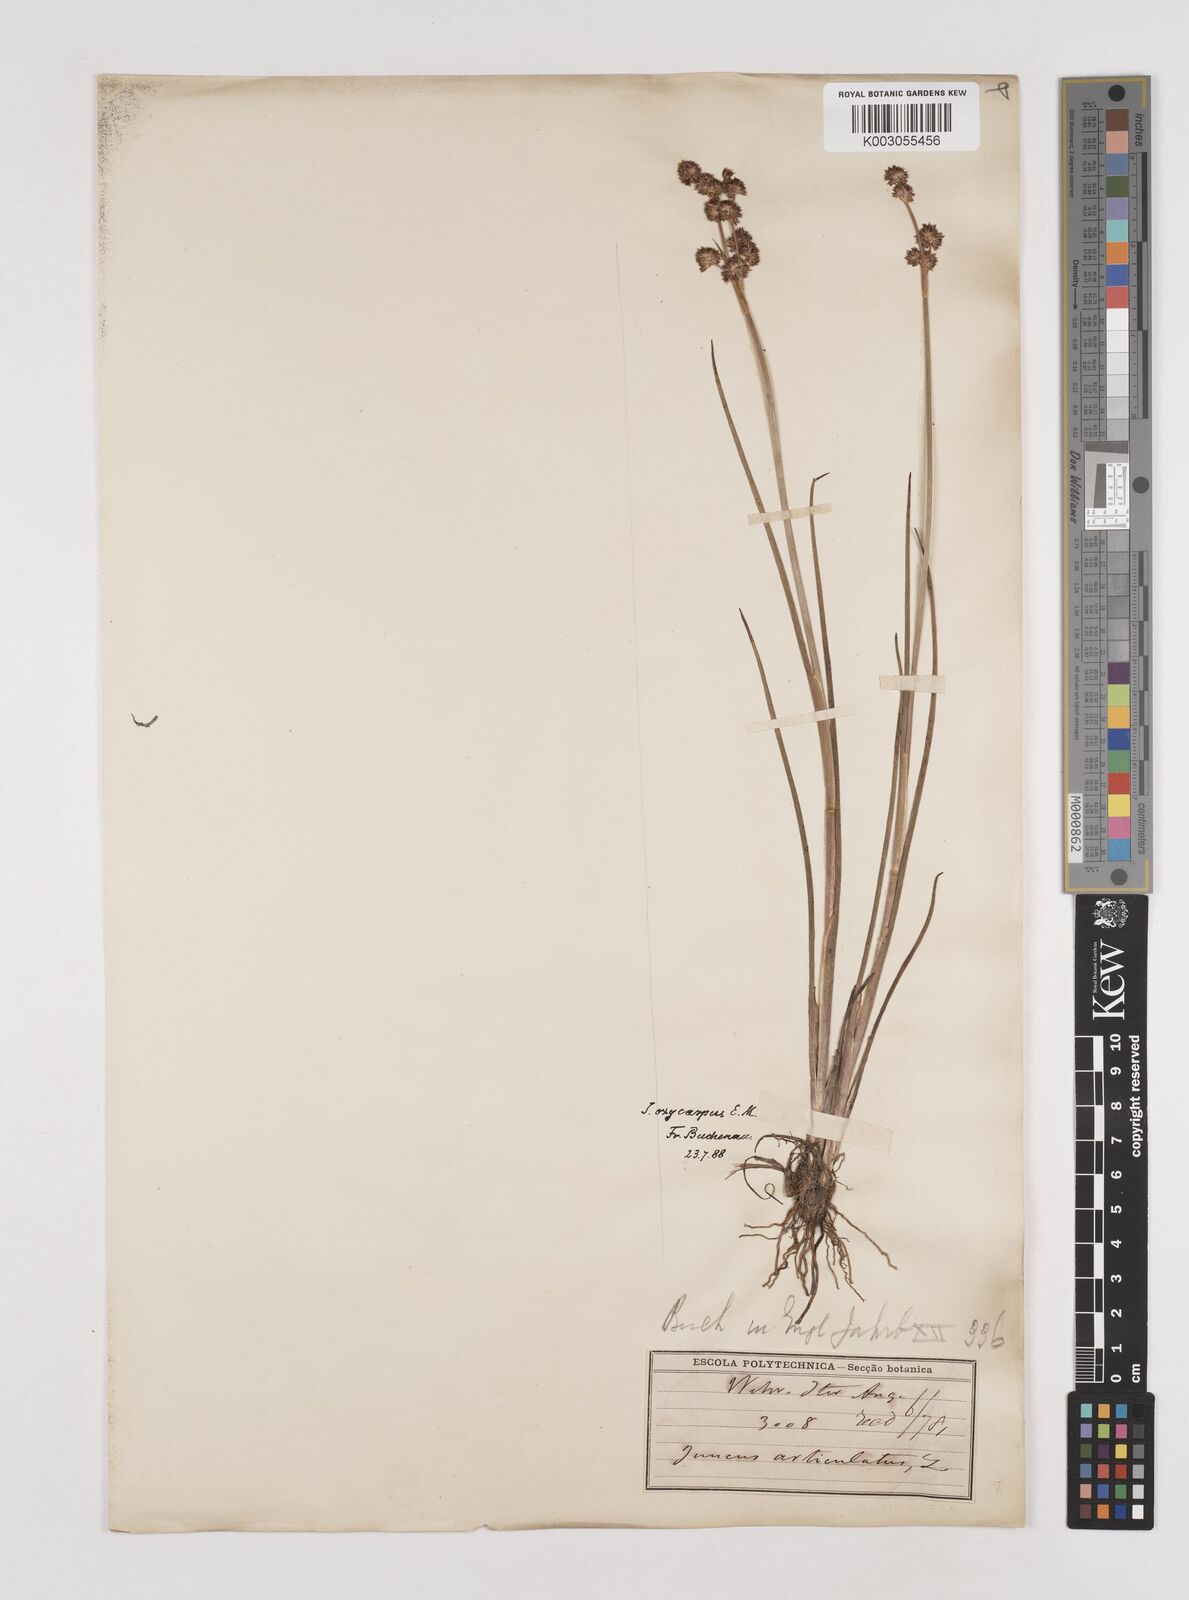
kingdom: Plantae
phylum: Tracheophyta
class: Liliopsida
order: Poales
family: Juncaceae
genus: Juncus
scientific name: Juncus oxycarpus
